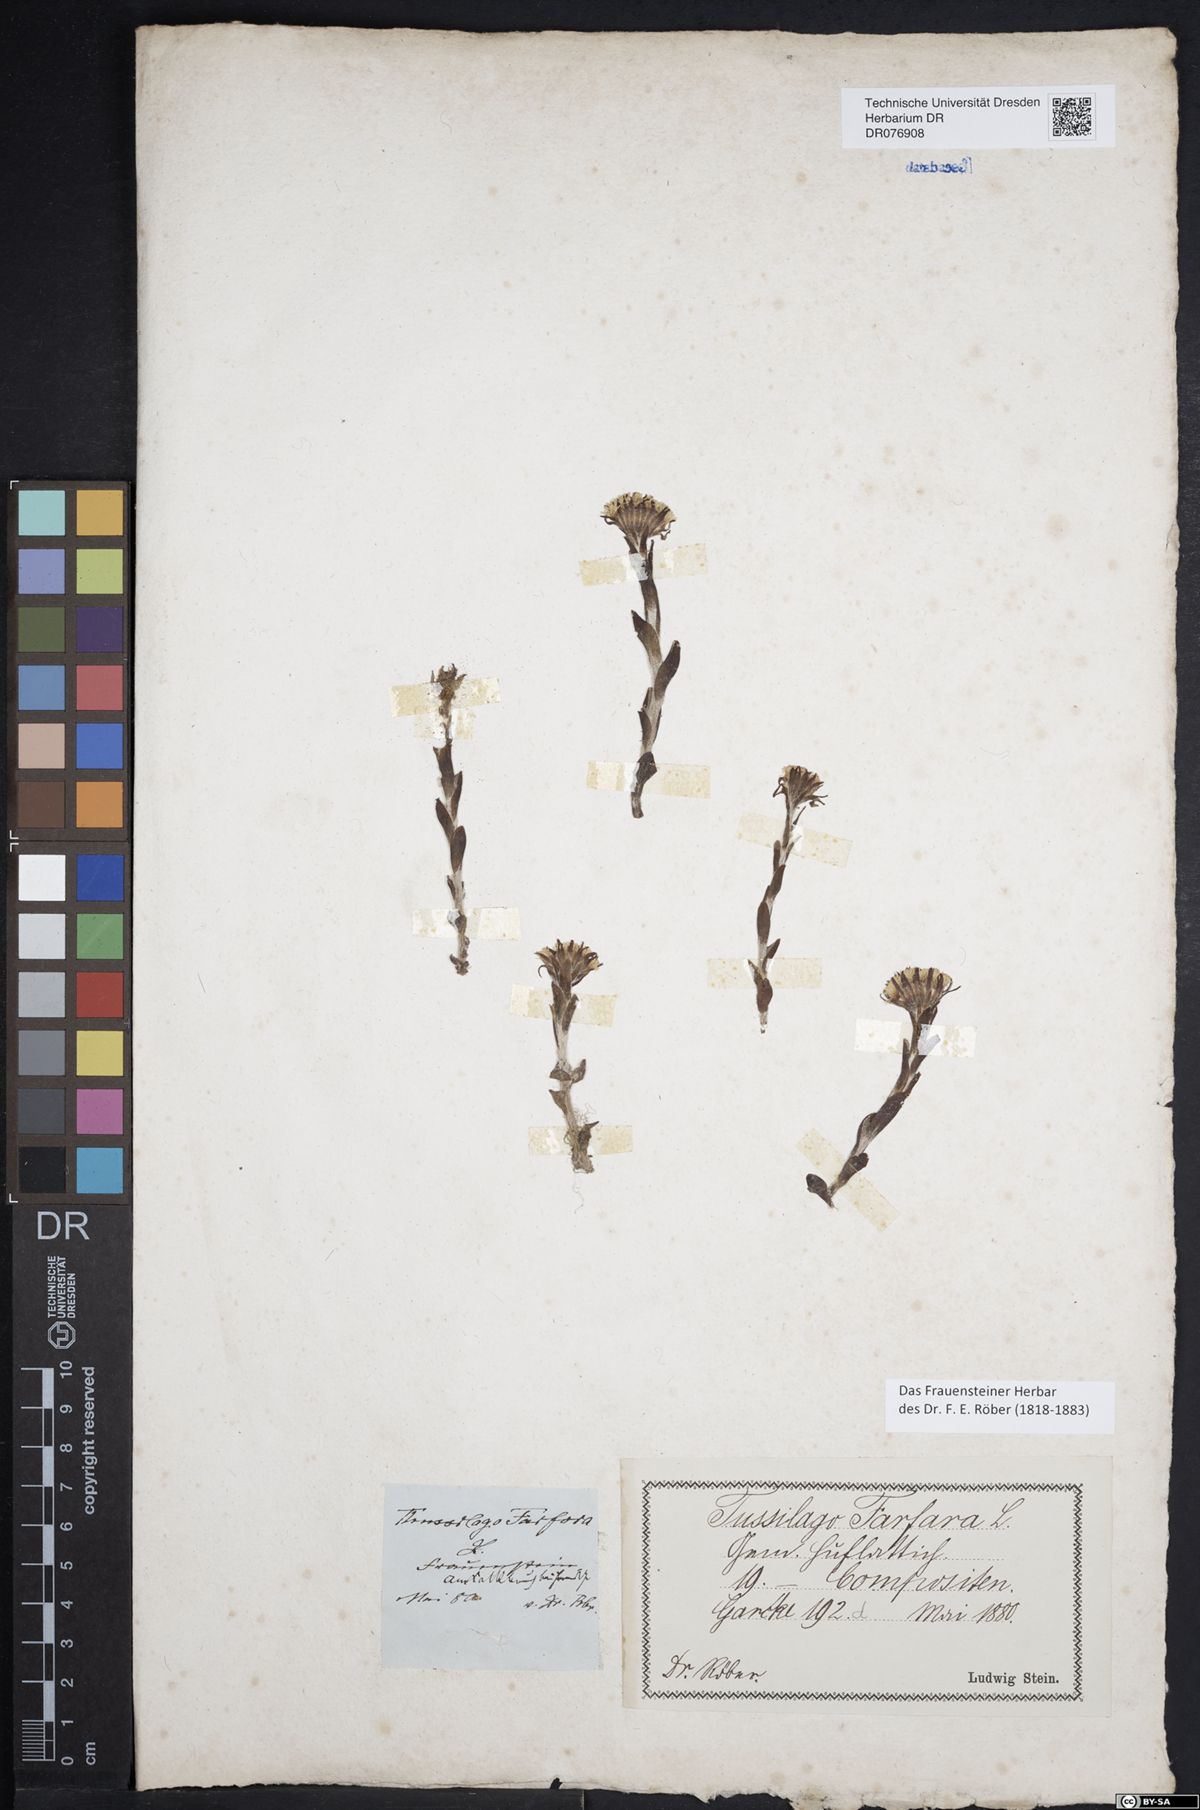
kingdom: Plantae
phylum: Tracheophyta
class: Magnoliopsida
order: Asterales
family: Asteraceae
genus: Tussilago
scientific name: Tussilago farfara
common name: Coltsfoot
